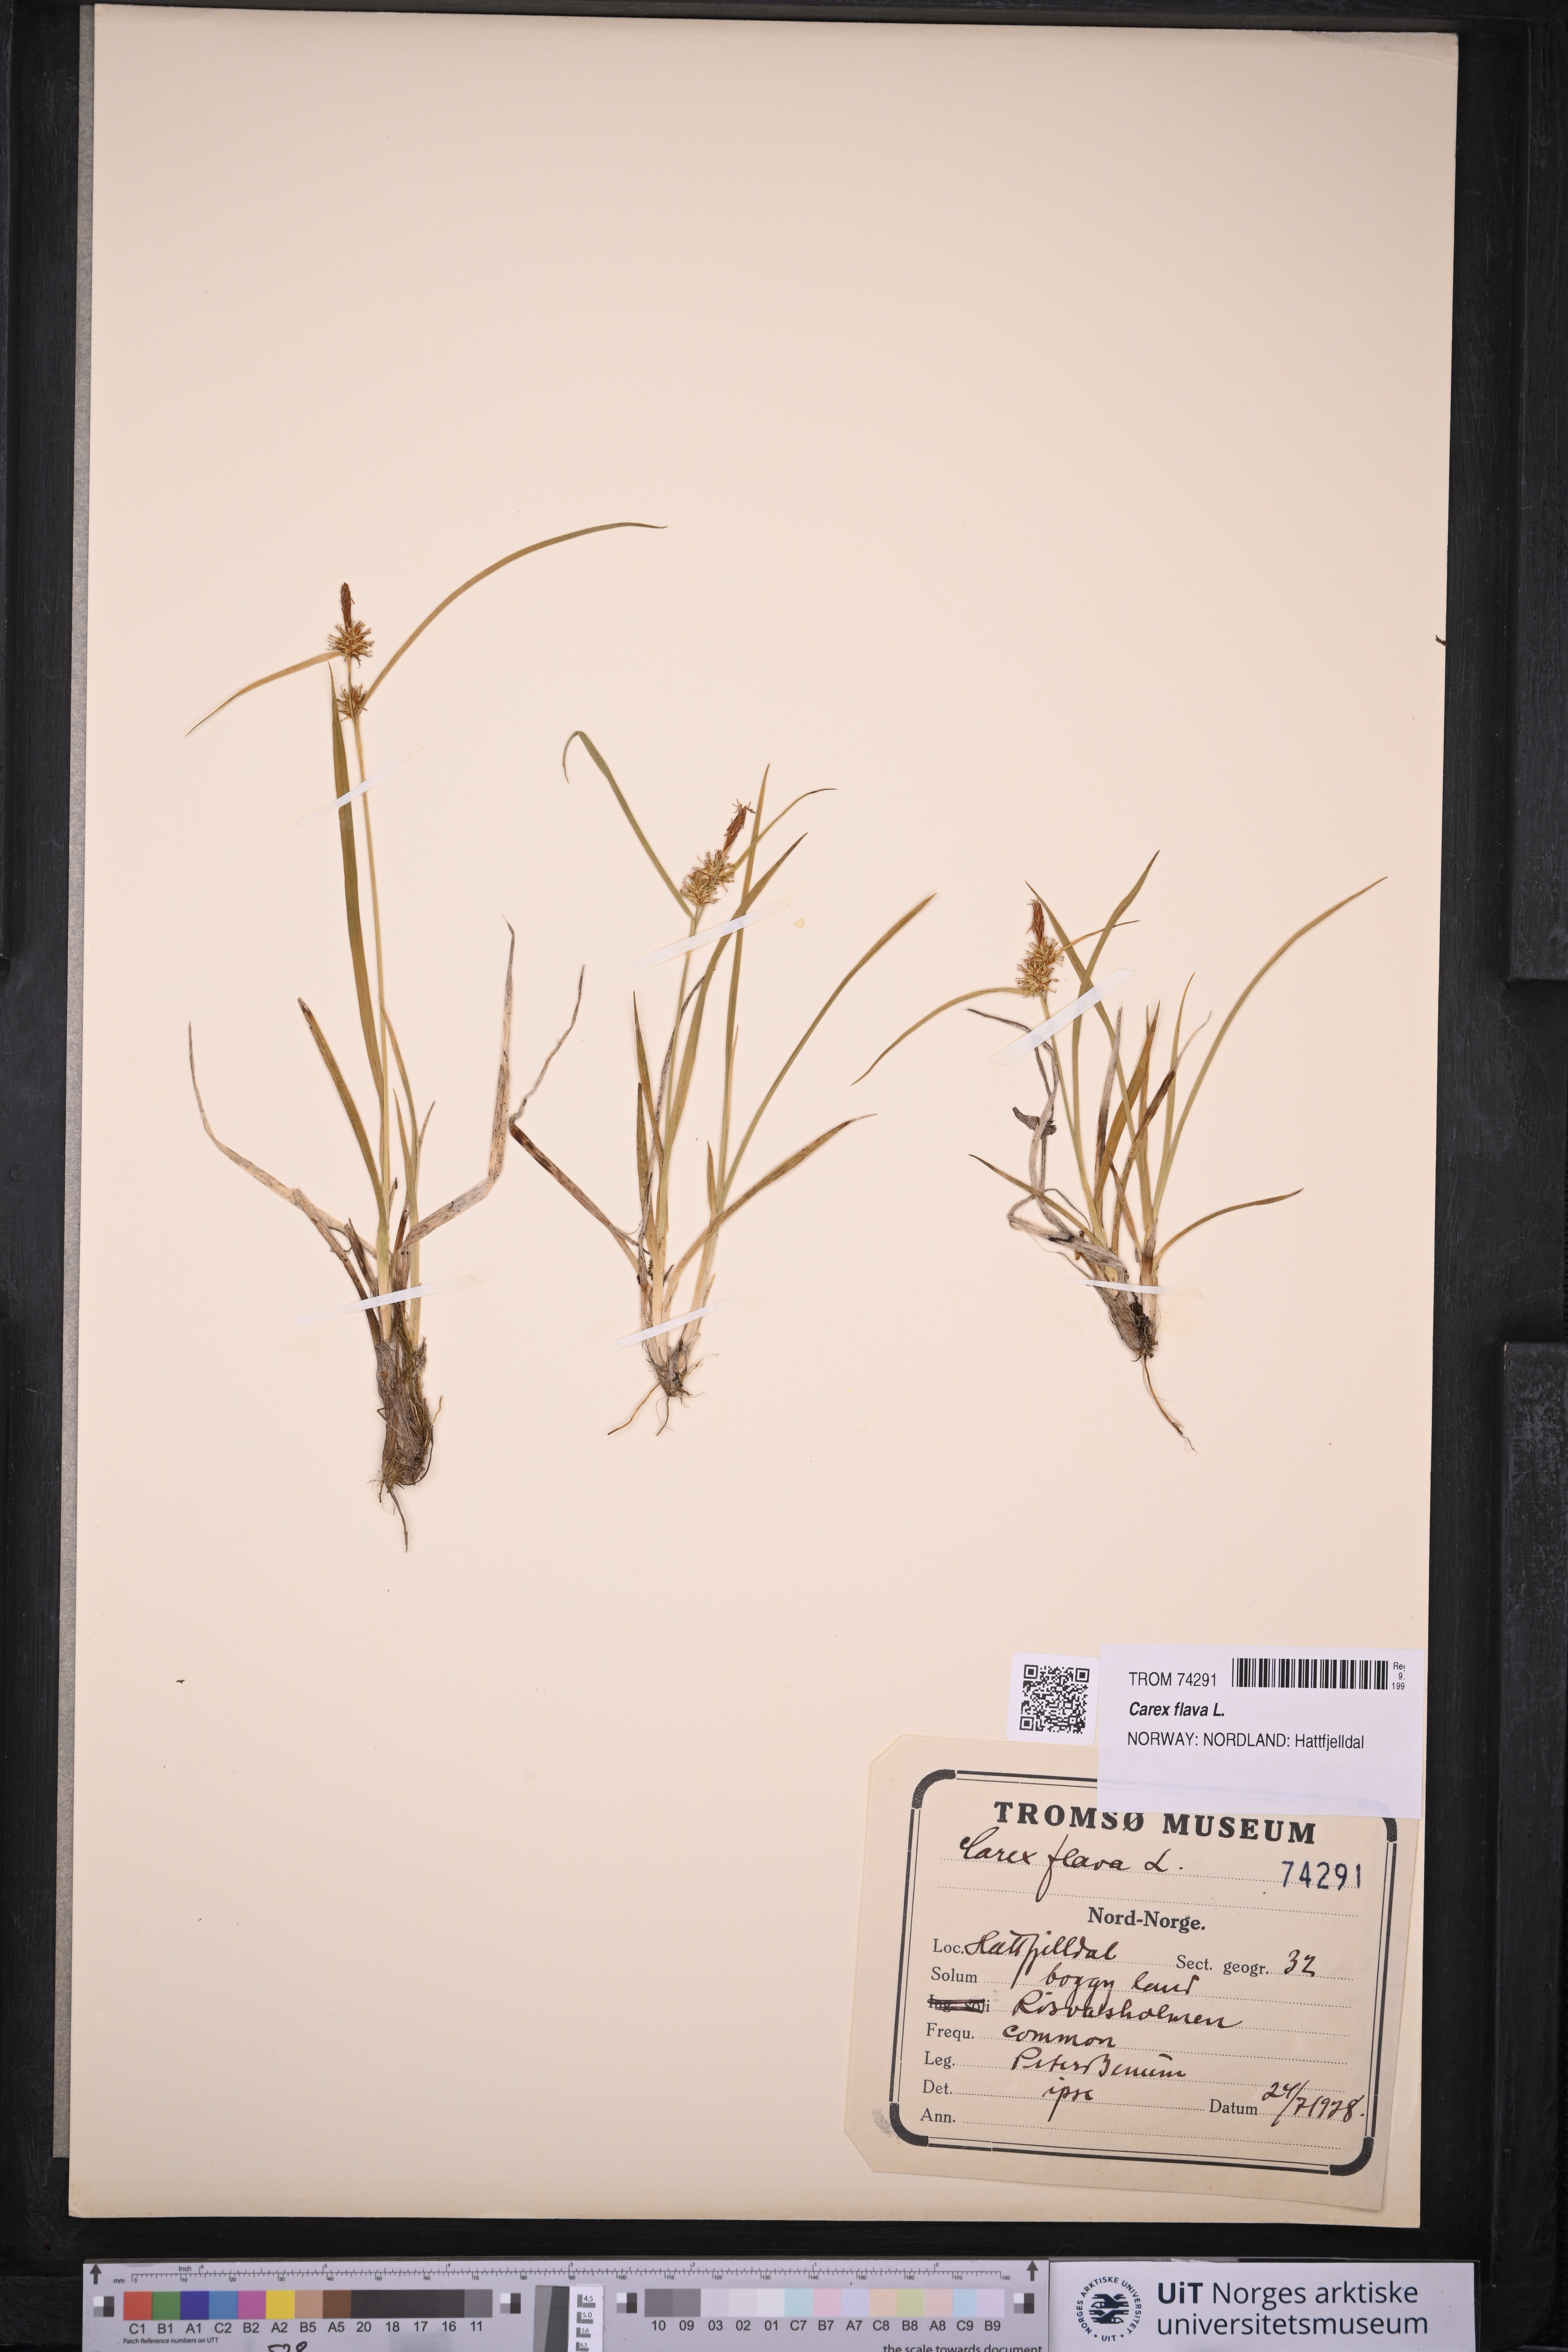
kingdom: Plantae
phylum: Tracheophyta
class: Liliopsida
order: Poales
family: Cyperaceae
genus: Carex
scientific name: Carex flava
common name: Large yellow-sedge
